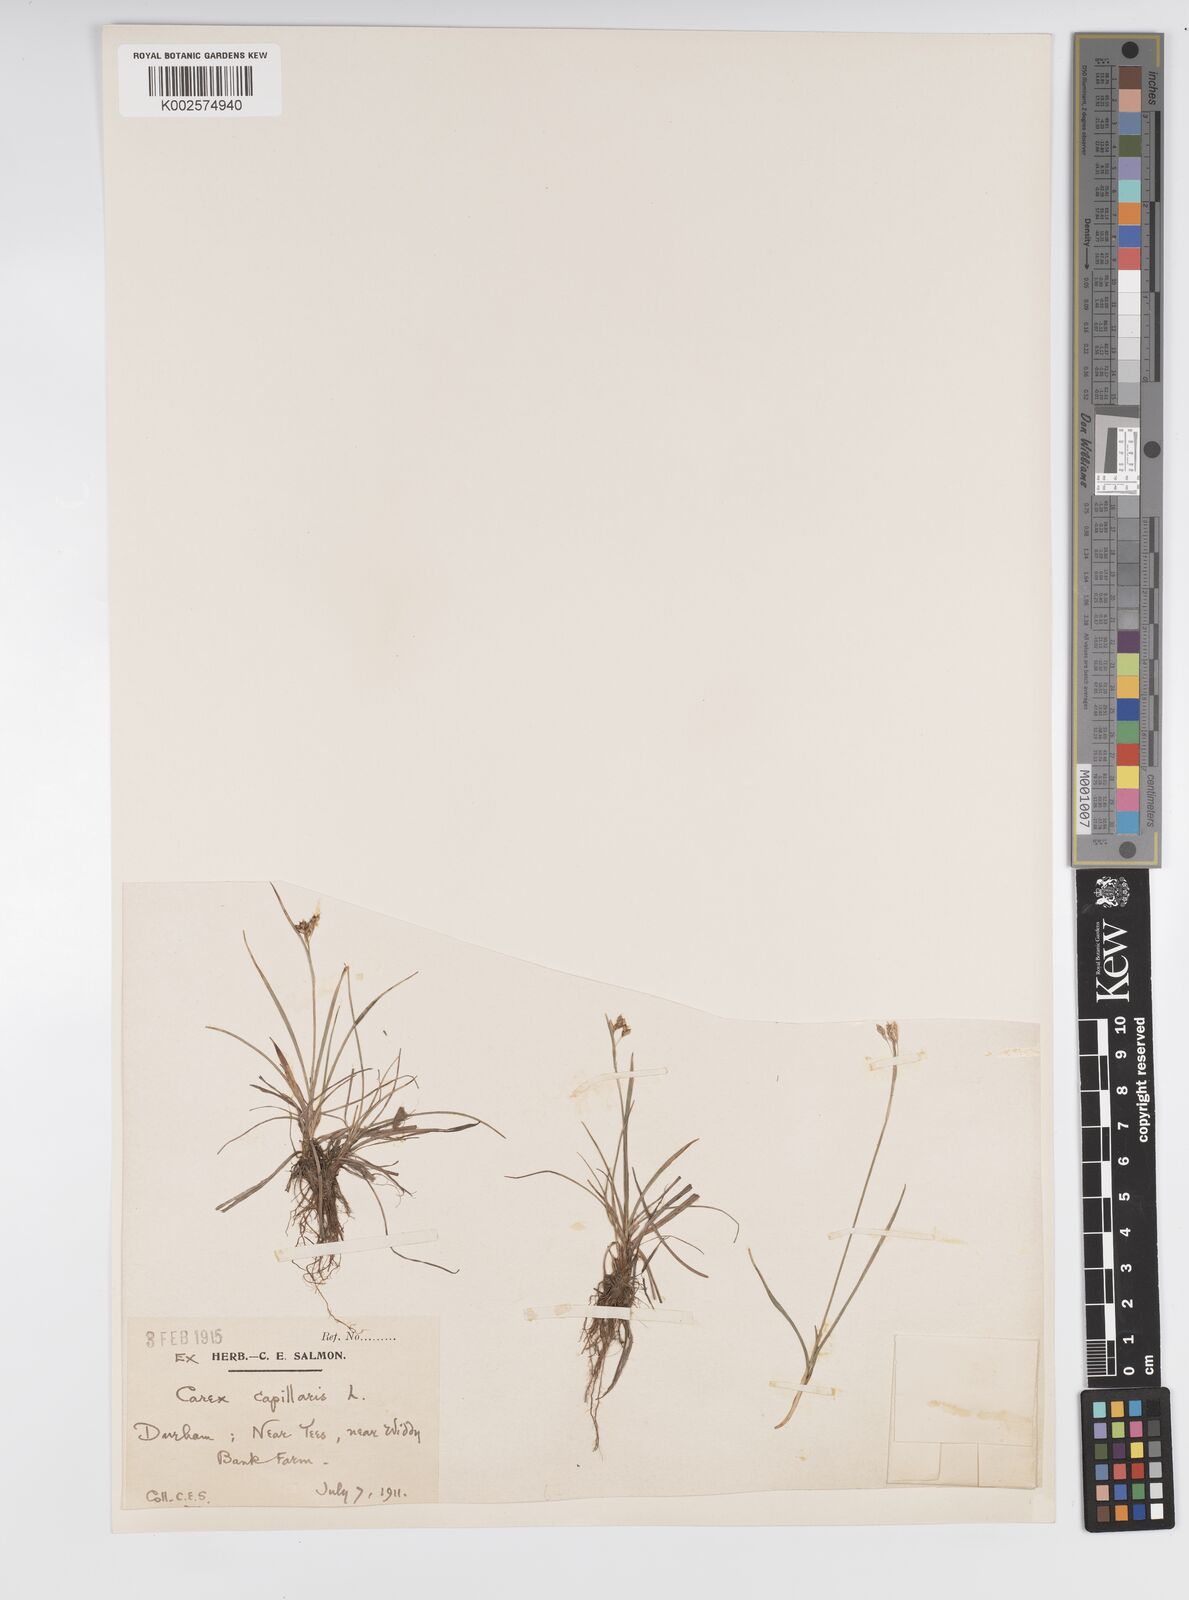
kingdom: Plantae
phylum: Tracheophyta
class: Liliopsida
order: Poales
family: Cyperaceae
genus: Carex
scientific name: Carex capillaris
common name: Hair sedge
